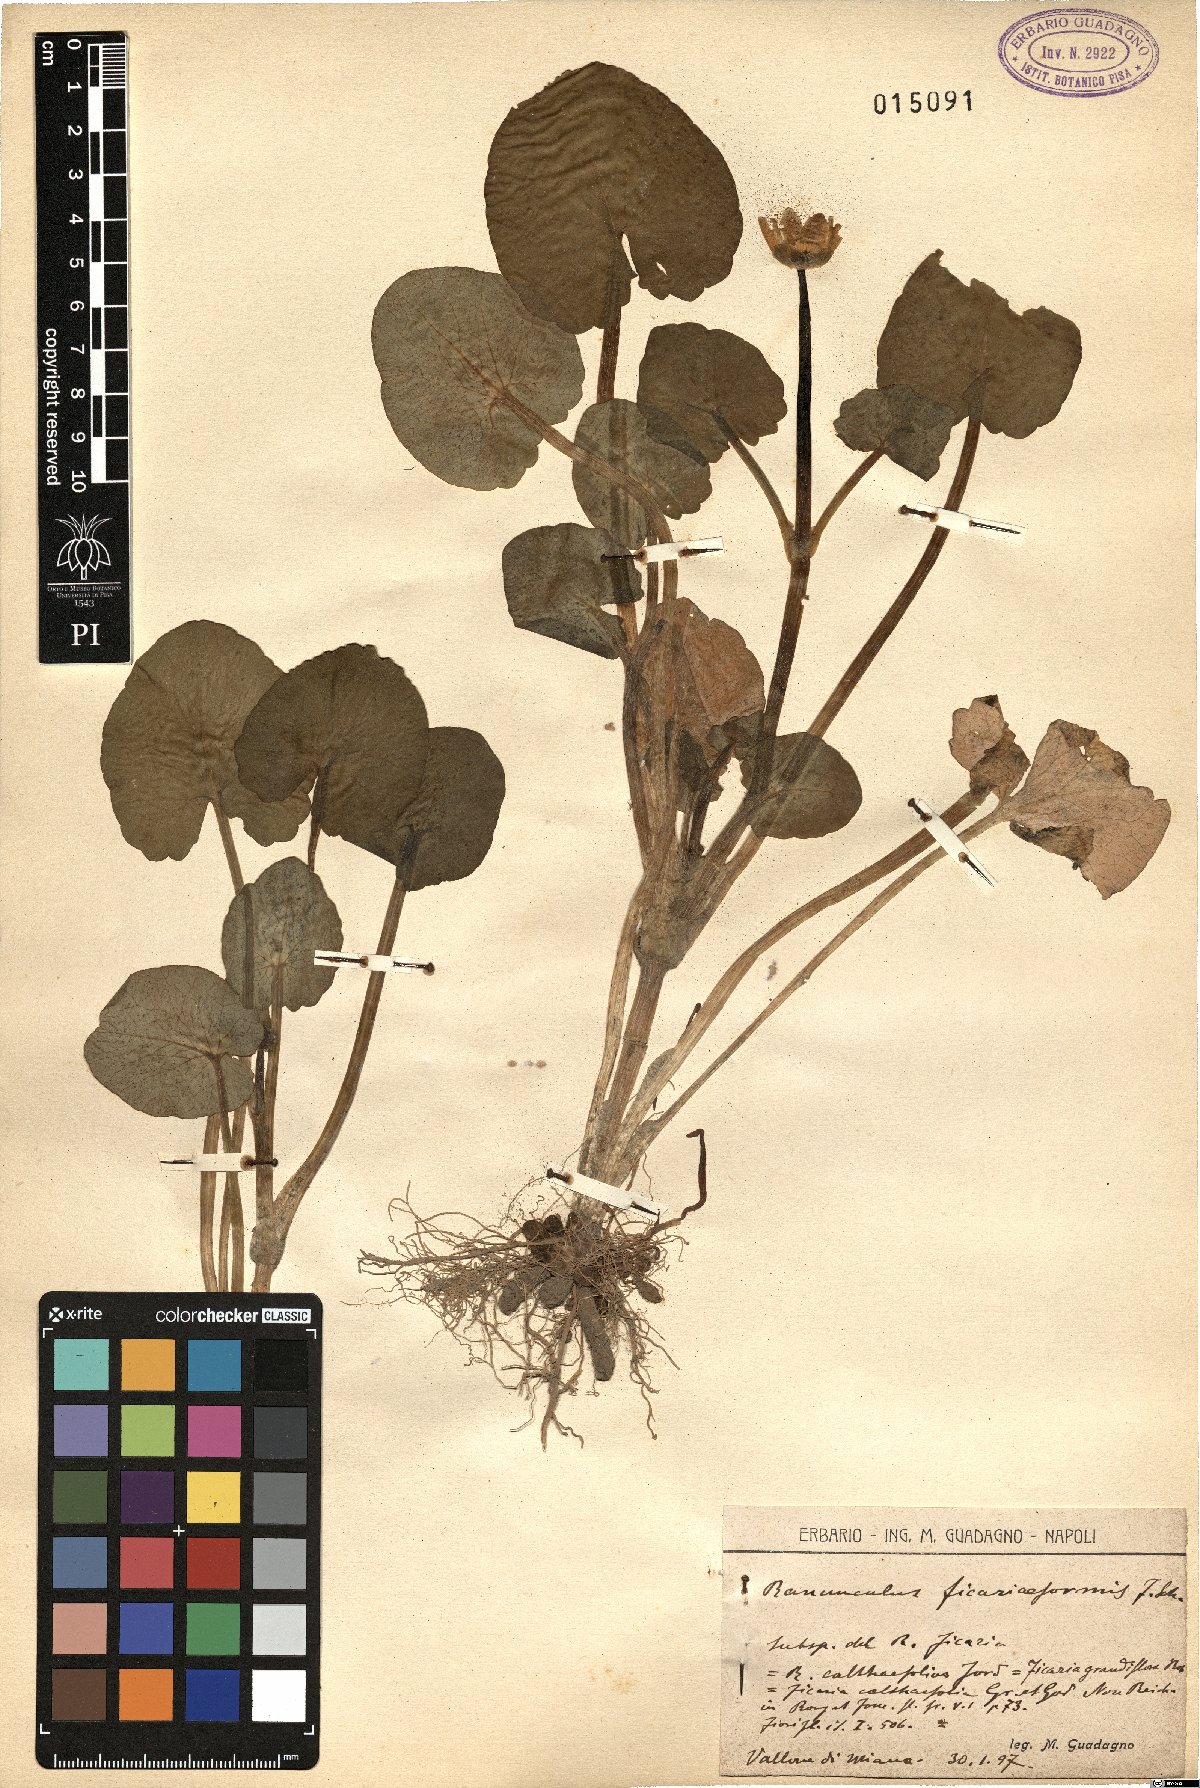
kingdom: Plantae
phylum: Tracheophyta
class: Magnoliopsida
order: Ranunculales
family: Ranunculaceae
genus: Ranunculus
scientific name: Ranunculus ficariiformis
